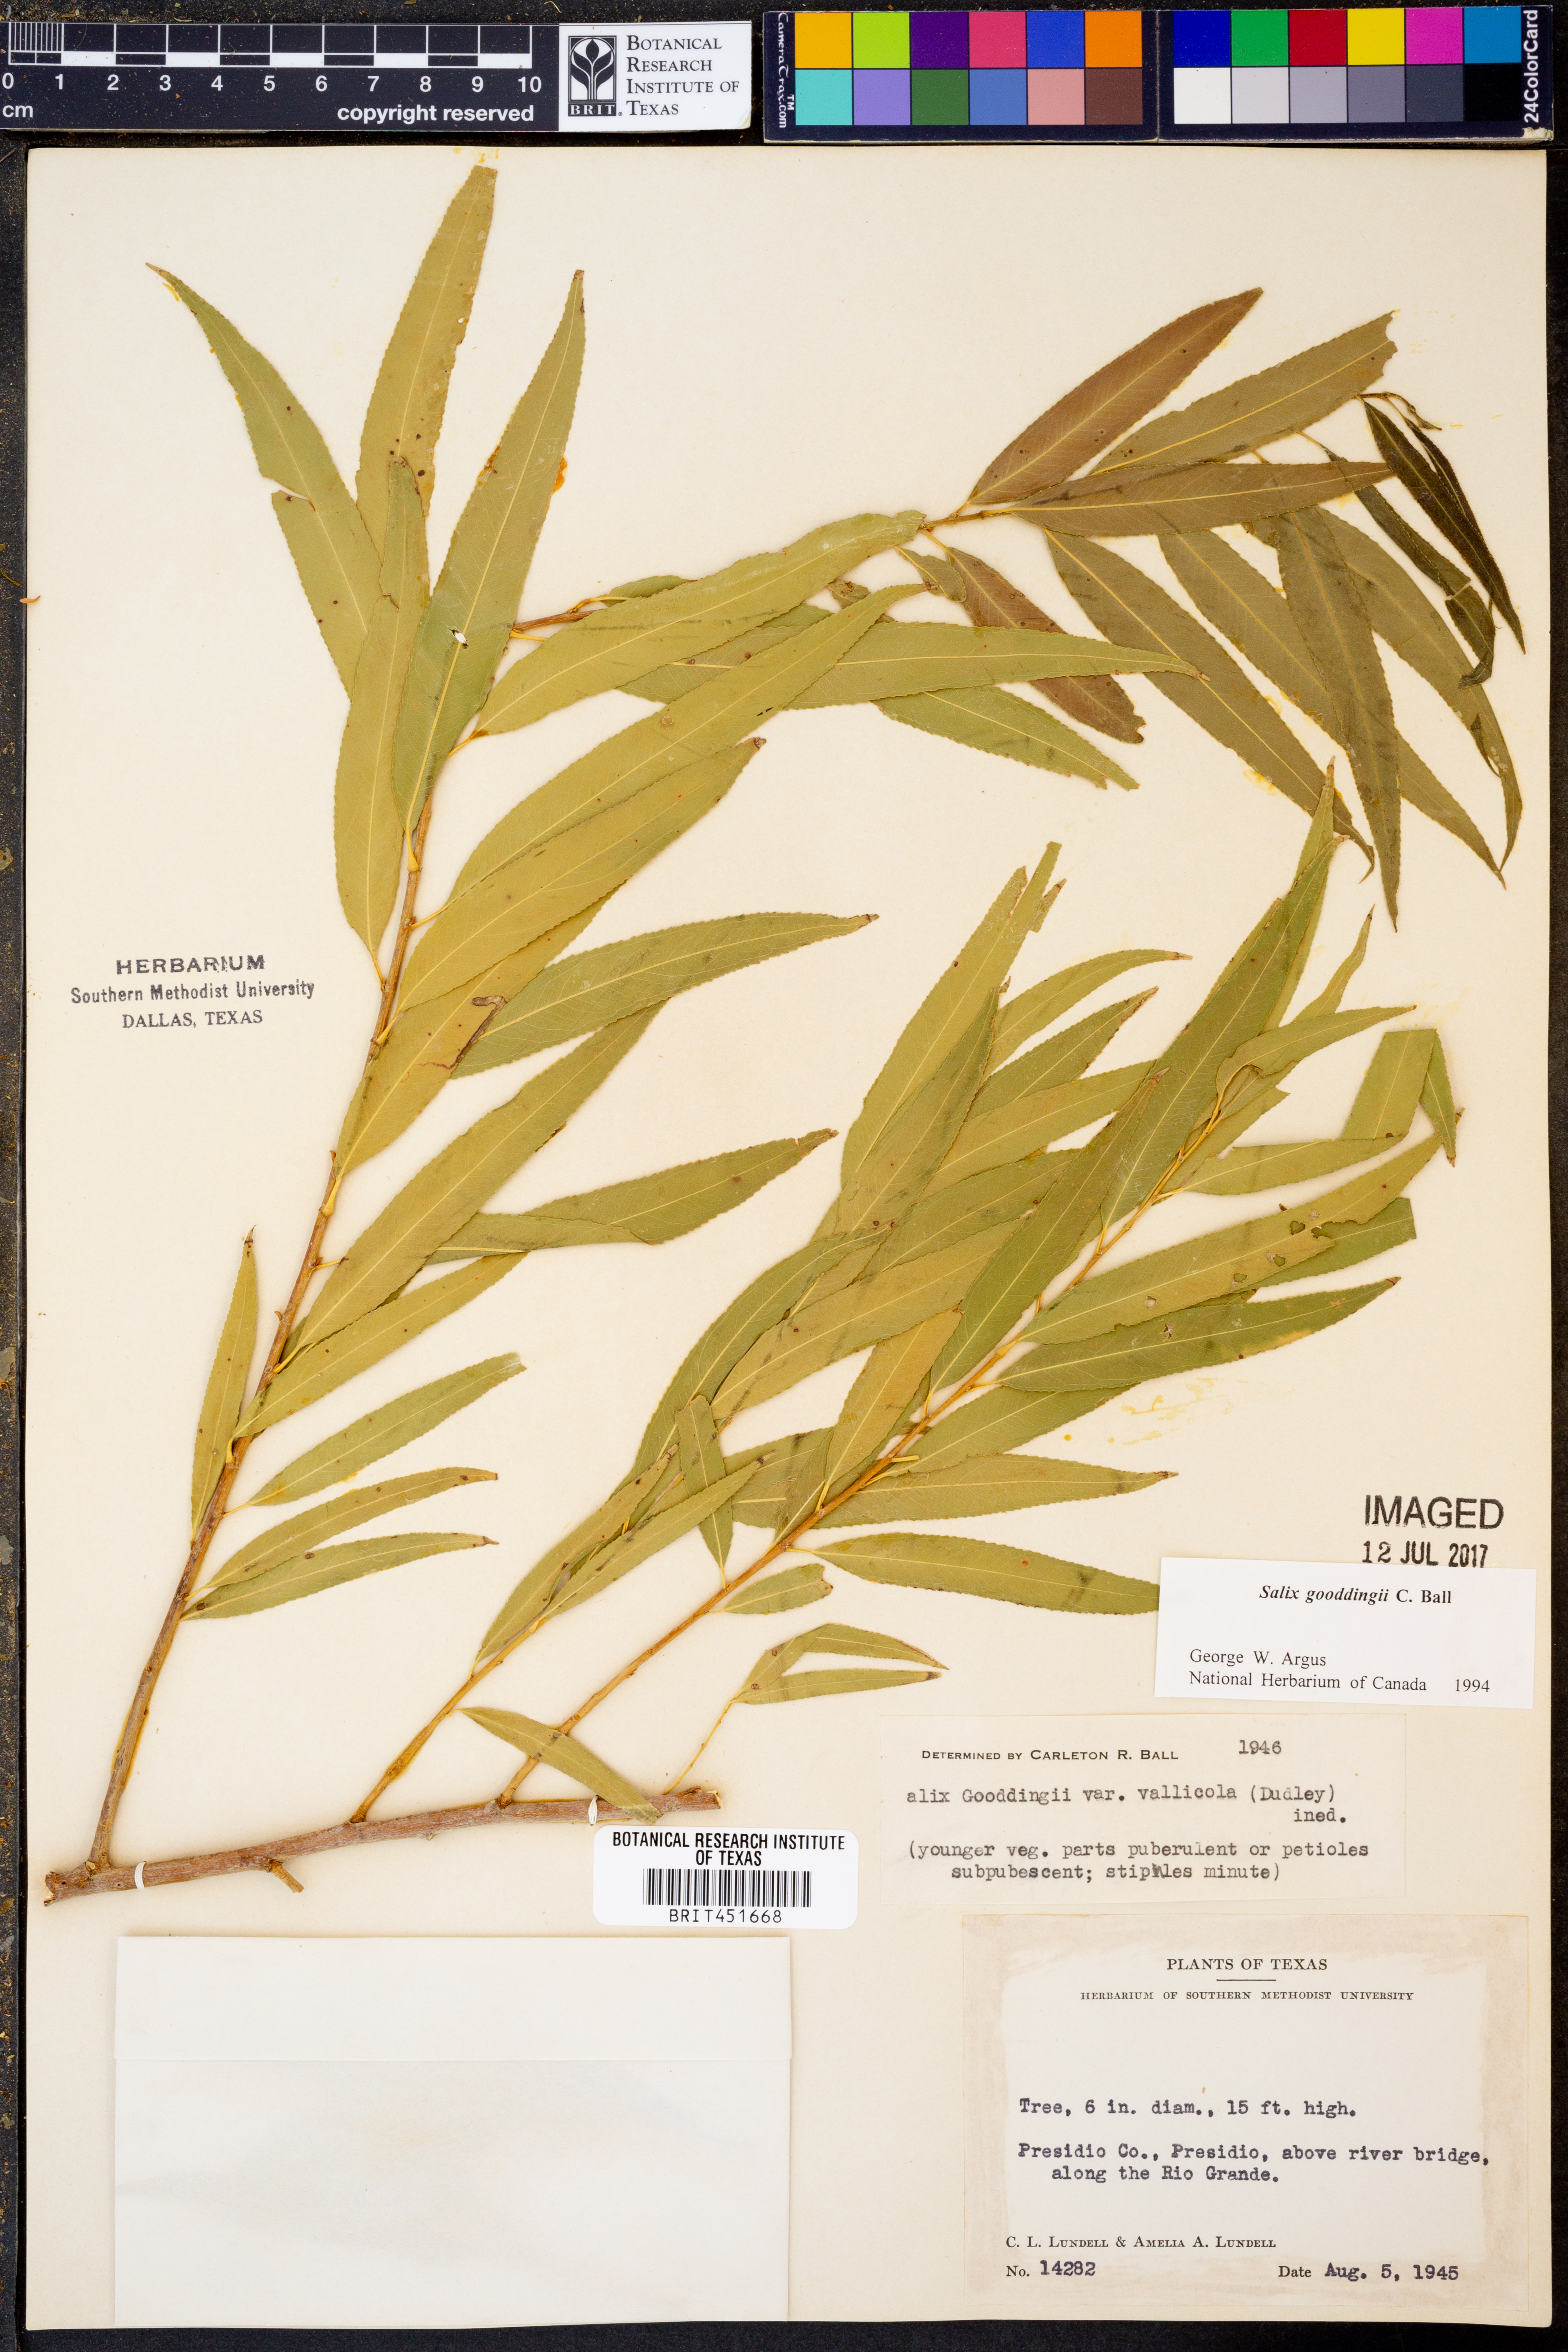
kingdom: Plantae
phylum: Tracheophyta
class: Magnoliopsida
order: Malpighiales
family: Salicaceae
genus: Salix
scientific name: Salix gooddingii
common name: Goodding's willow
